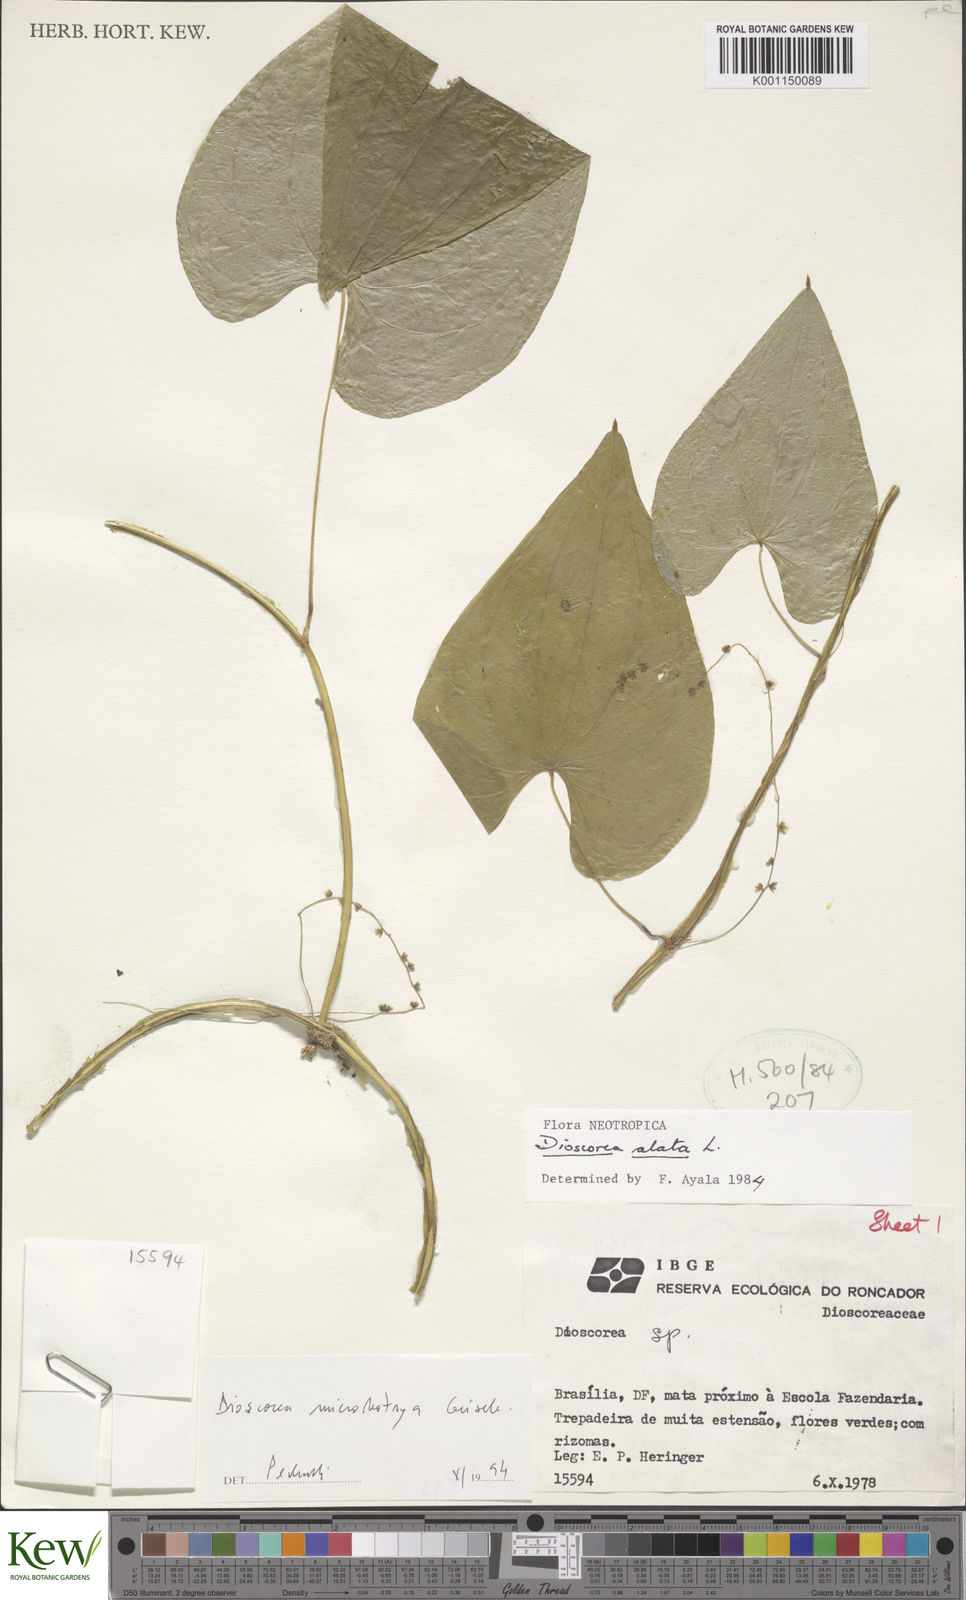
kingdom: Plantae
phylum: Tracheophyta
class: Liliopsida
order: Dioscoreales
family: Dioscoreaceae
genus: Dioscorea
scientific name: Dioscorea alata
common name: Water yam
